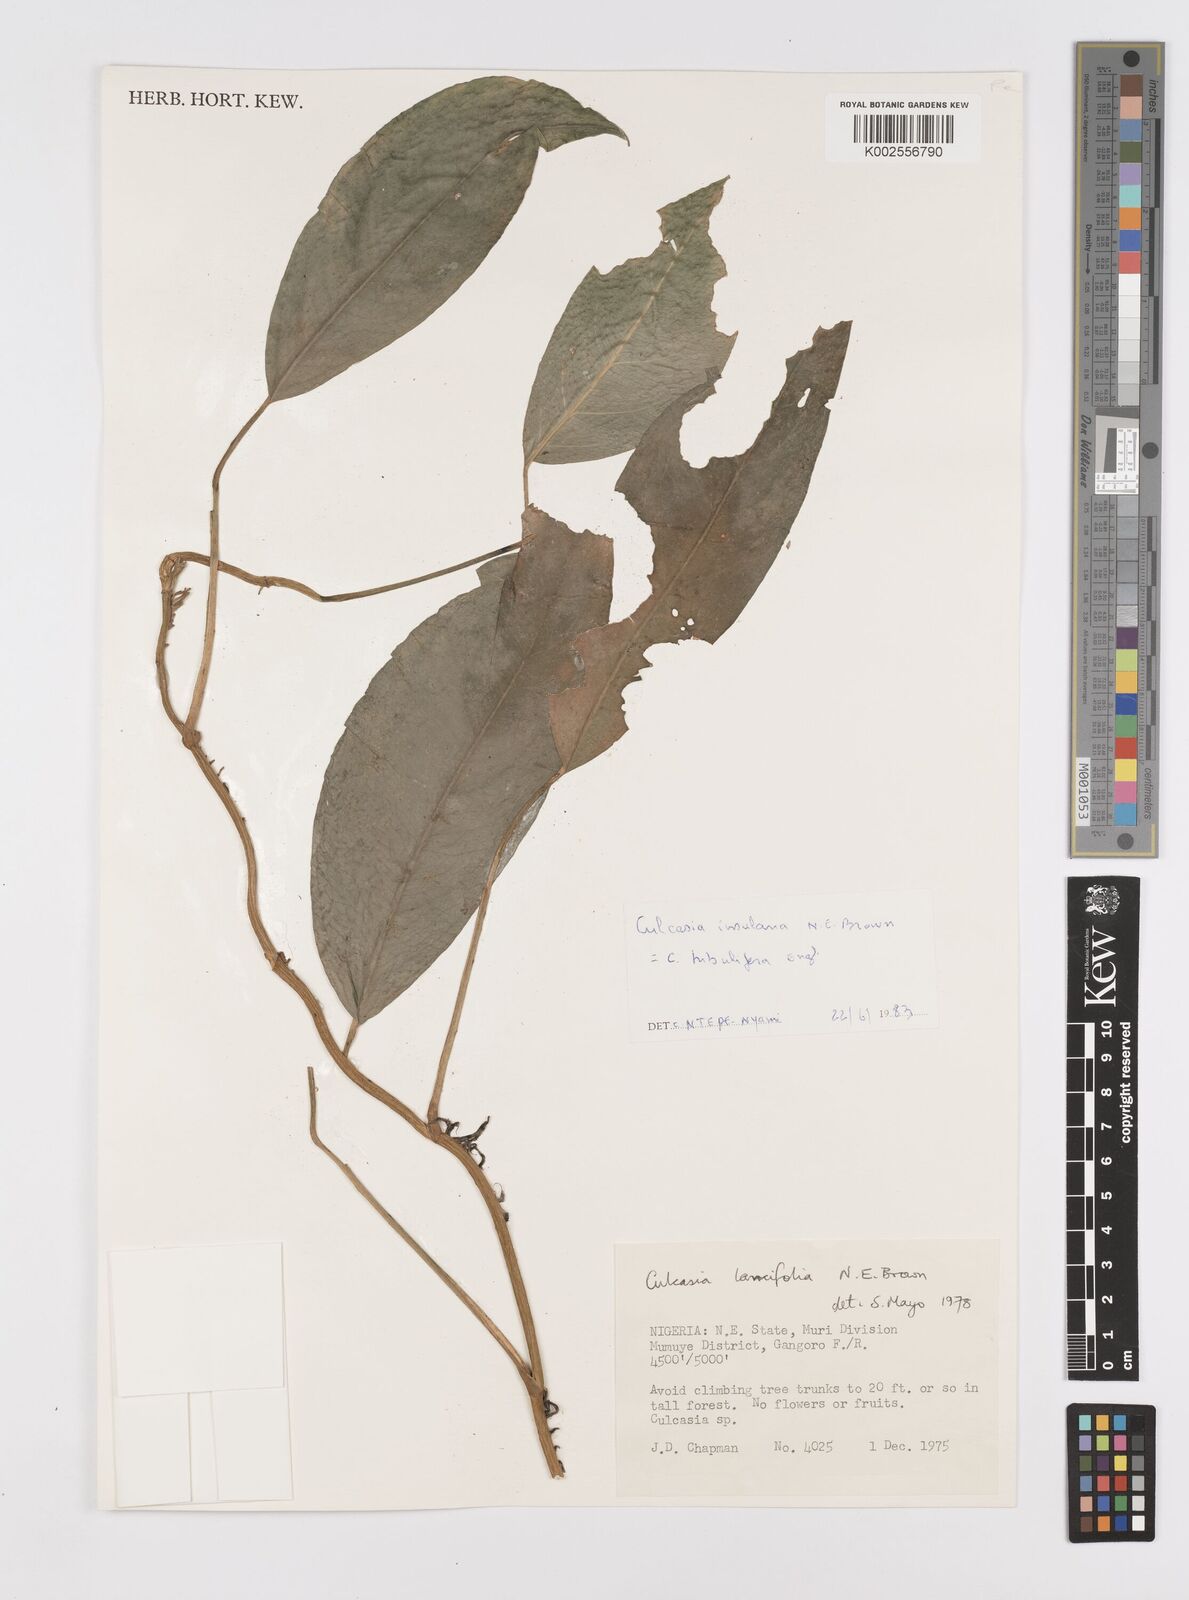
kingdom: Plantae
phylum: Tracheophyta
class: Liliopsida
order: Alismatales
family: Araceae
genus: Culcasia
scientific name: Culcasia insulana
